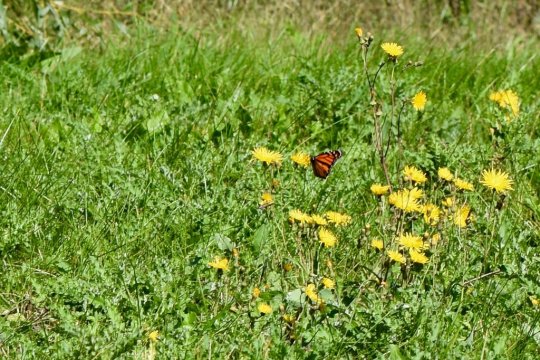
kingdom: Animalia
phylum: Arthropoda
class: Insecta
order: Lepidoptera
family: Nymphalidae
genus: Danaus
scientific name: Danaus plexippus
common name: Monarch
